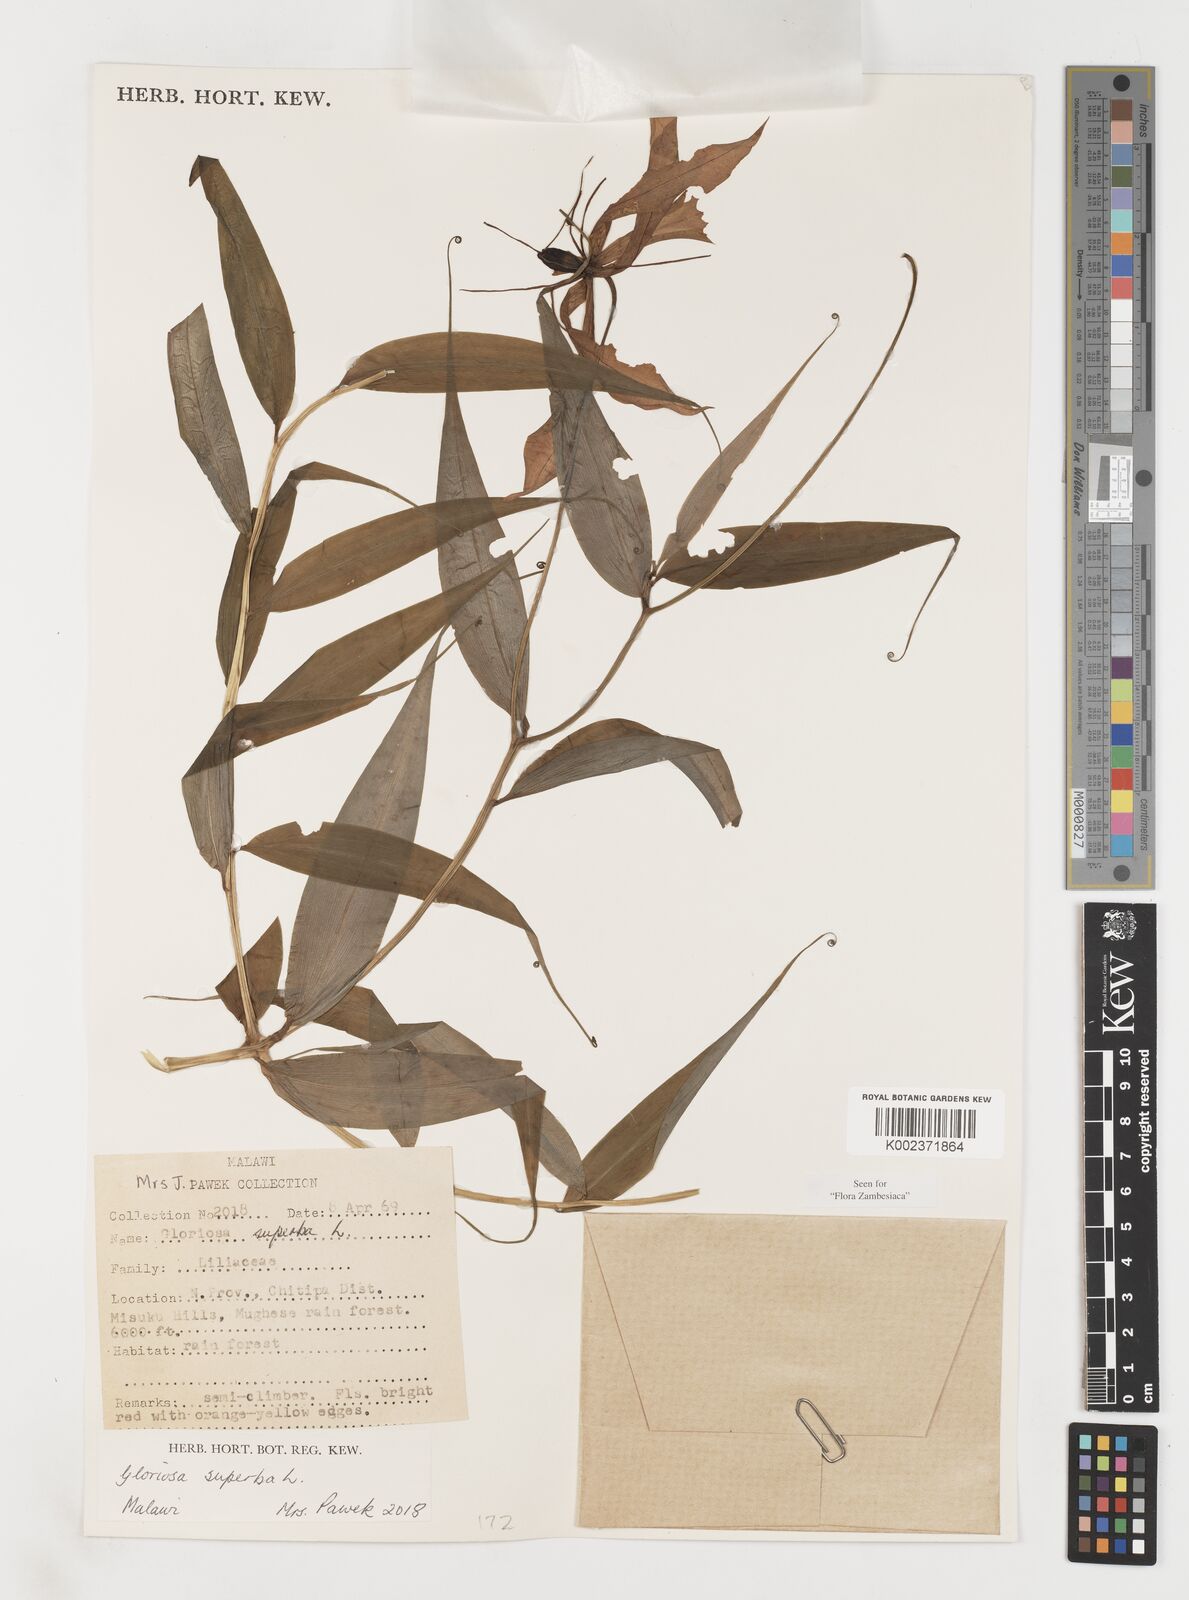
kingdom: Plantae
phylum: Tracheophyta
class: Liliopsida
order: Liliales
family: Colchicaceae
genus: Gloriosa
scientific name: Gloriosa simplex
